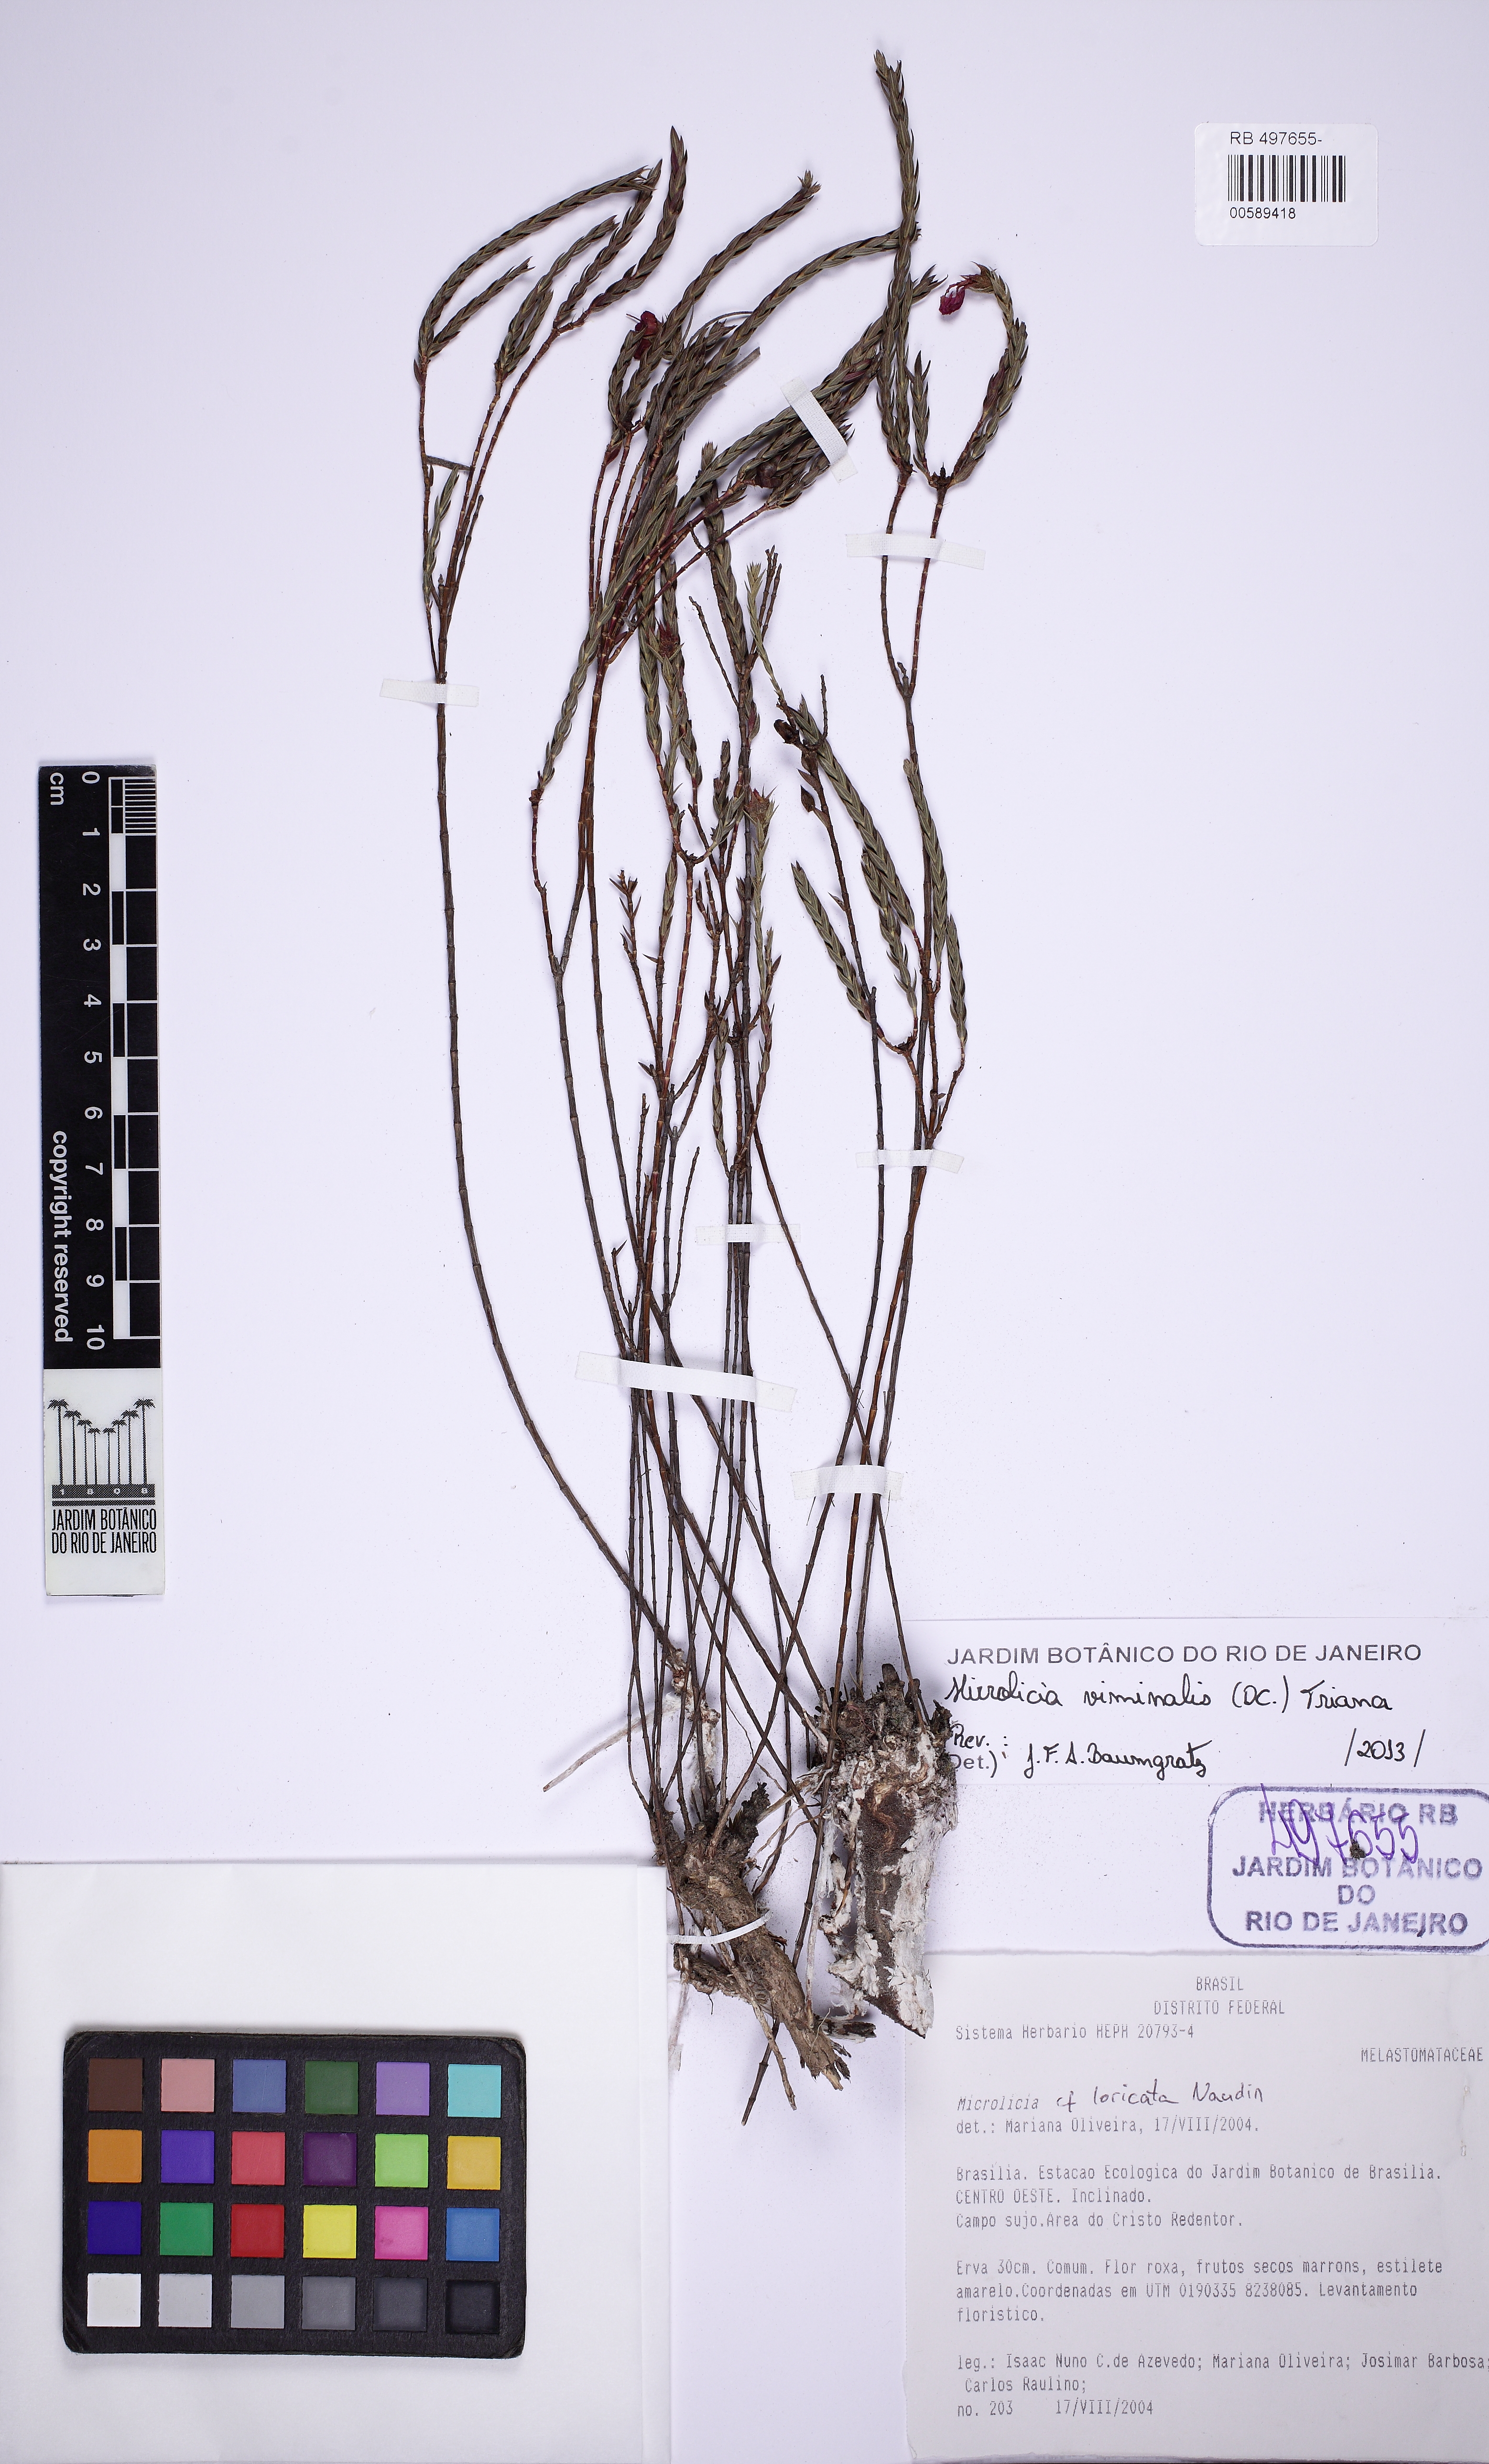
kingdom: Plantae
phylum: Tracheophyta
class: Magnoliopsida
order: Myrtales
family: Melastomataceae
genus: Microlicia
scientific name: Microlicia viminalis
